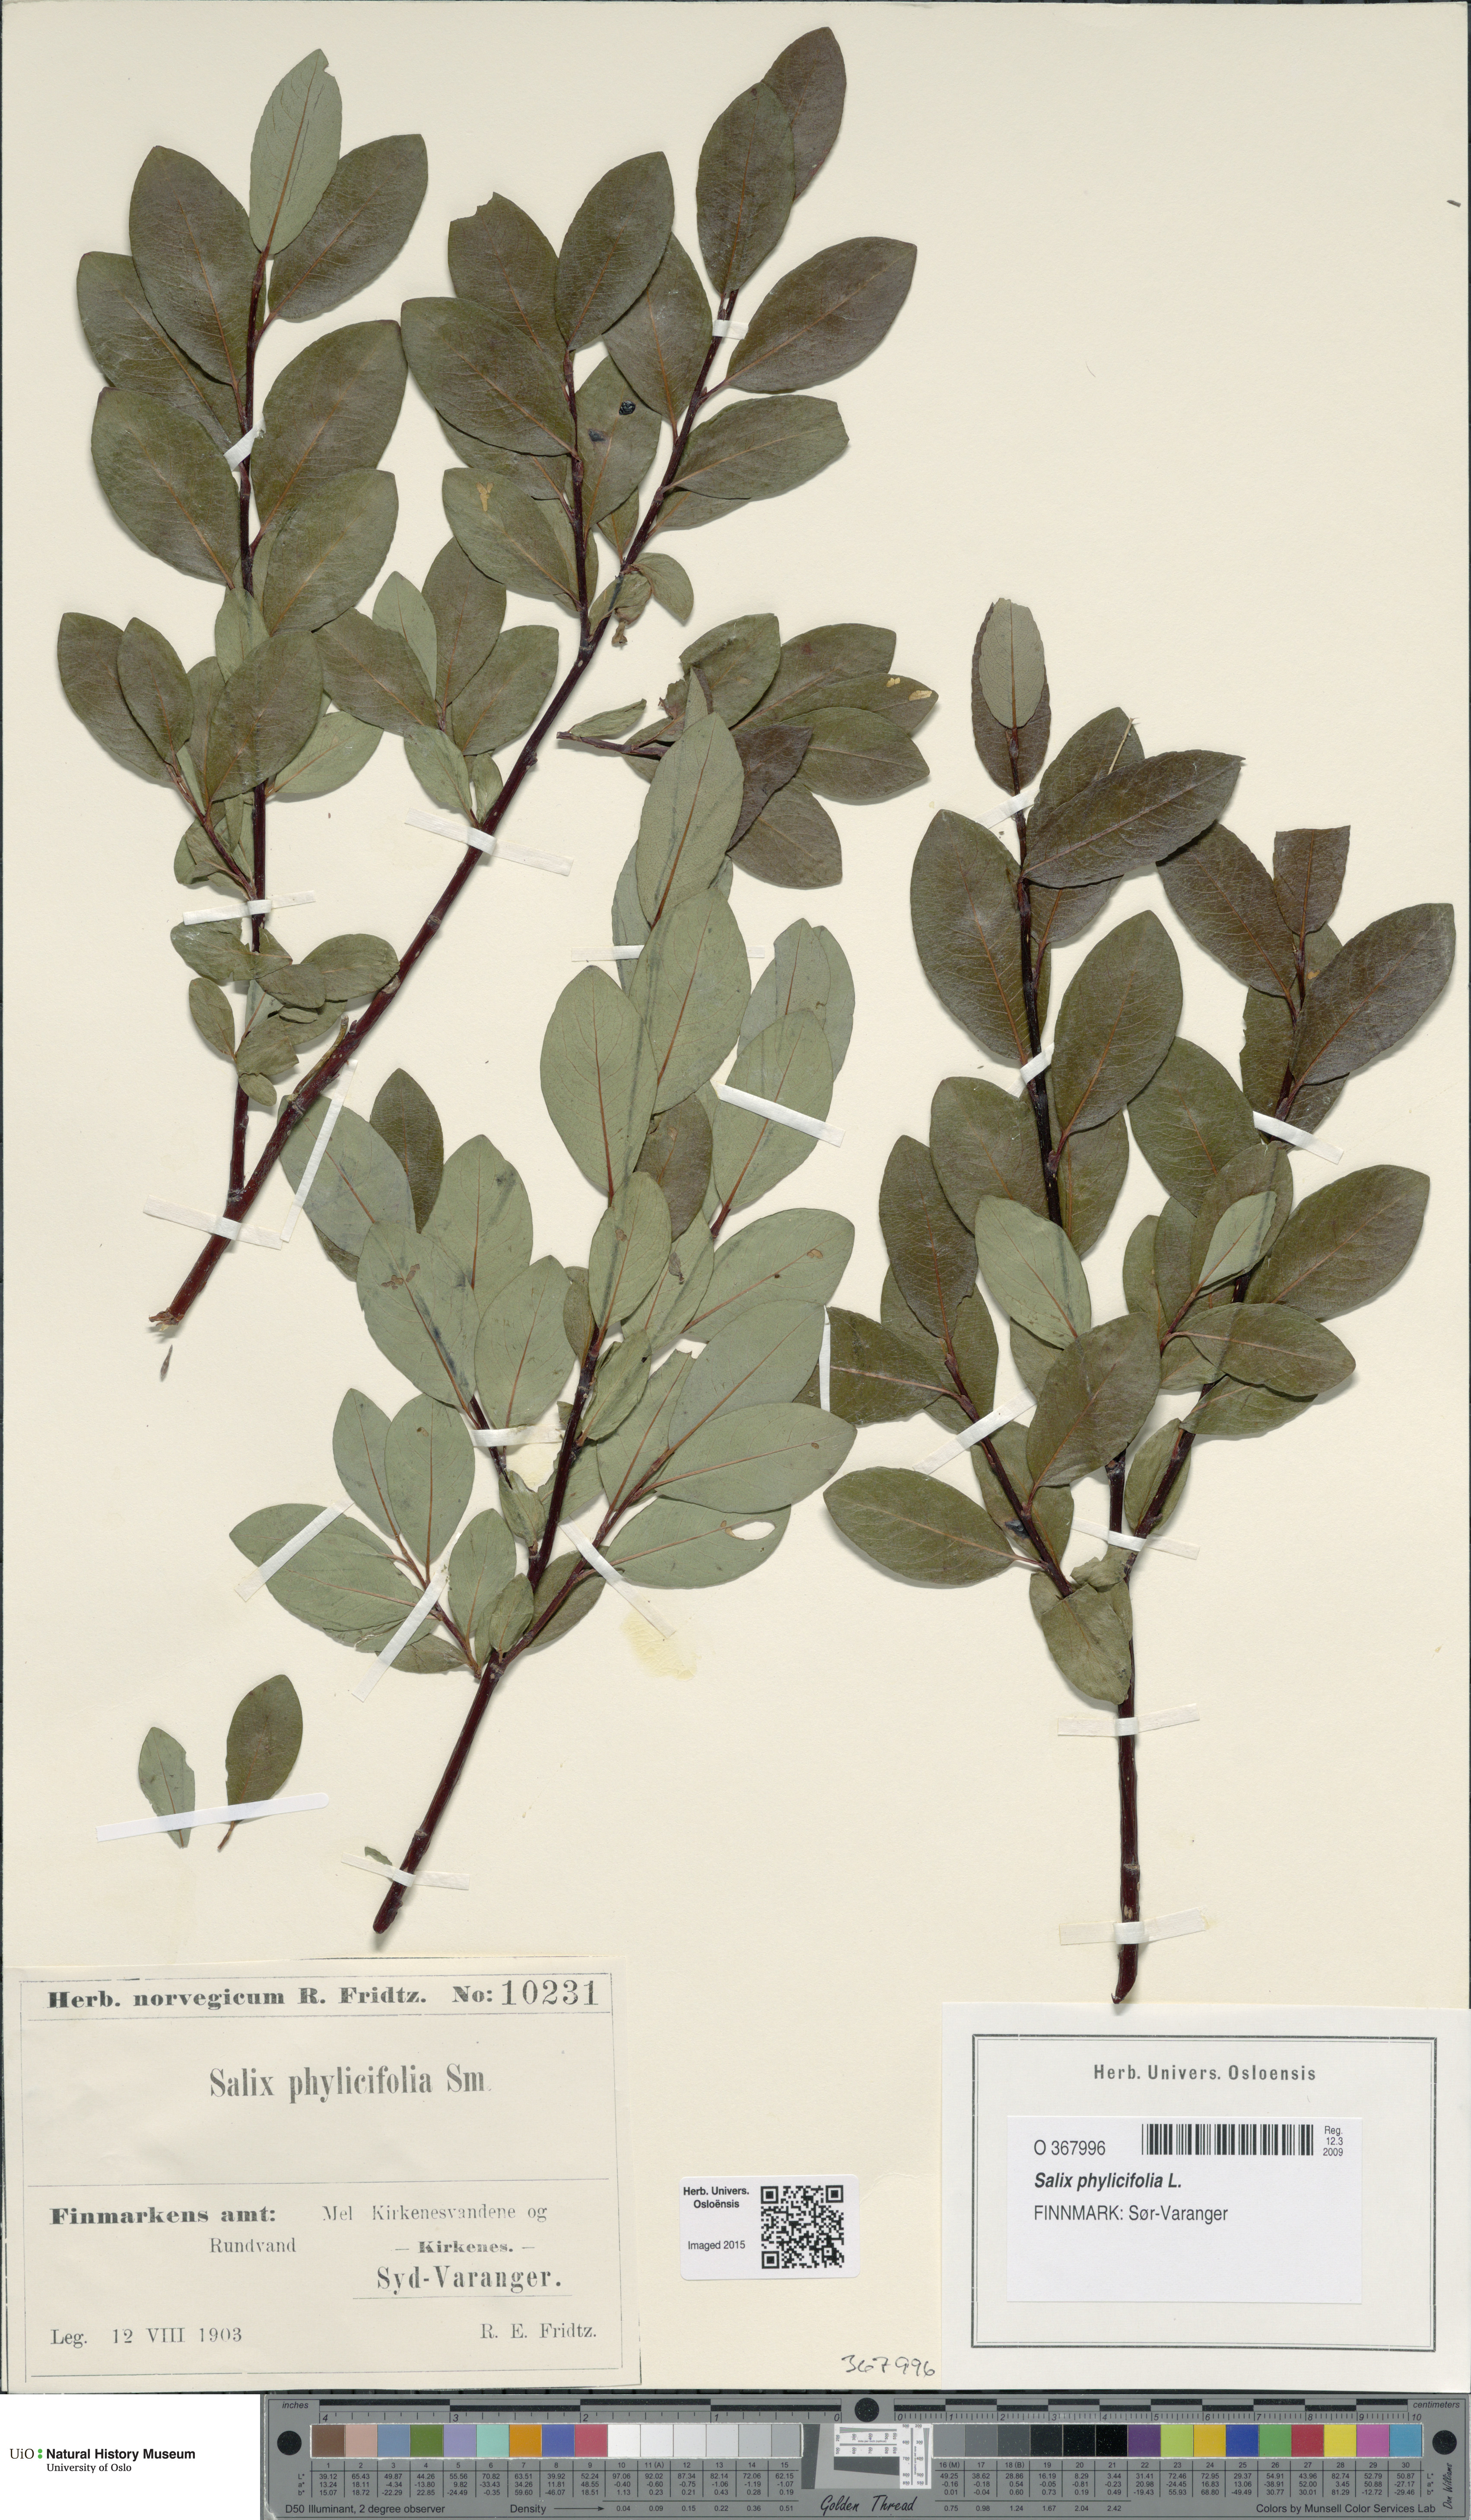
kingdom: Plantae
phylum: Tracheophyta
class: Magnoliopsida
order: Malpighiales
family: Salicaceae
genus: Salix
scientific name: Salix phylicifolia
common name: Tea-leaved willow
